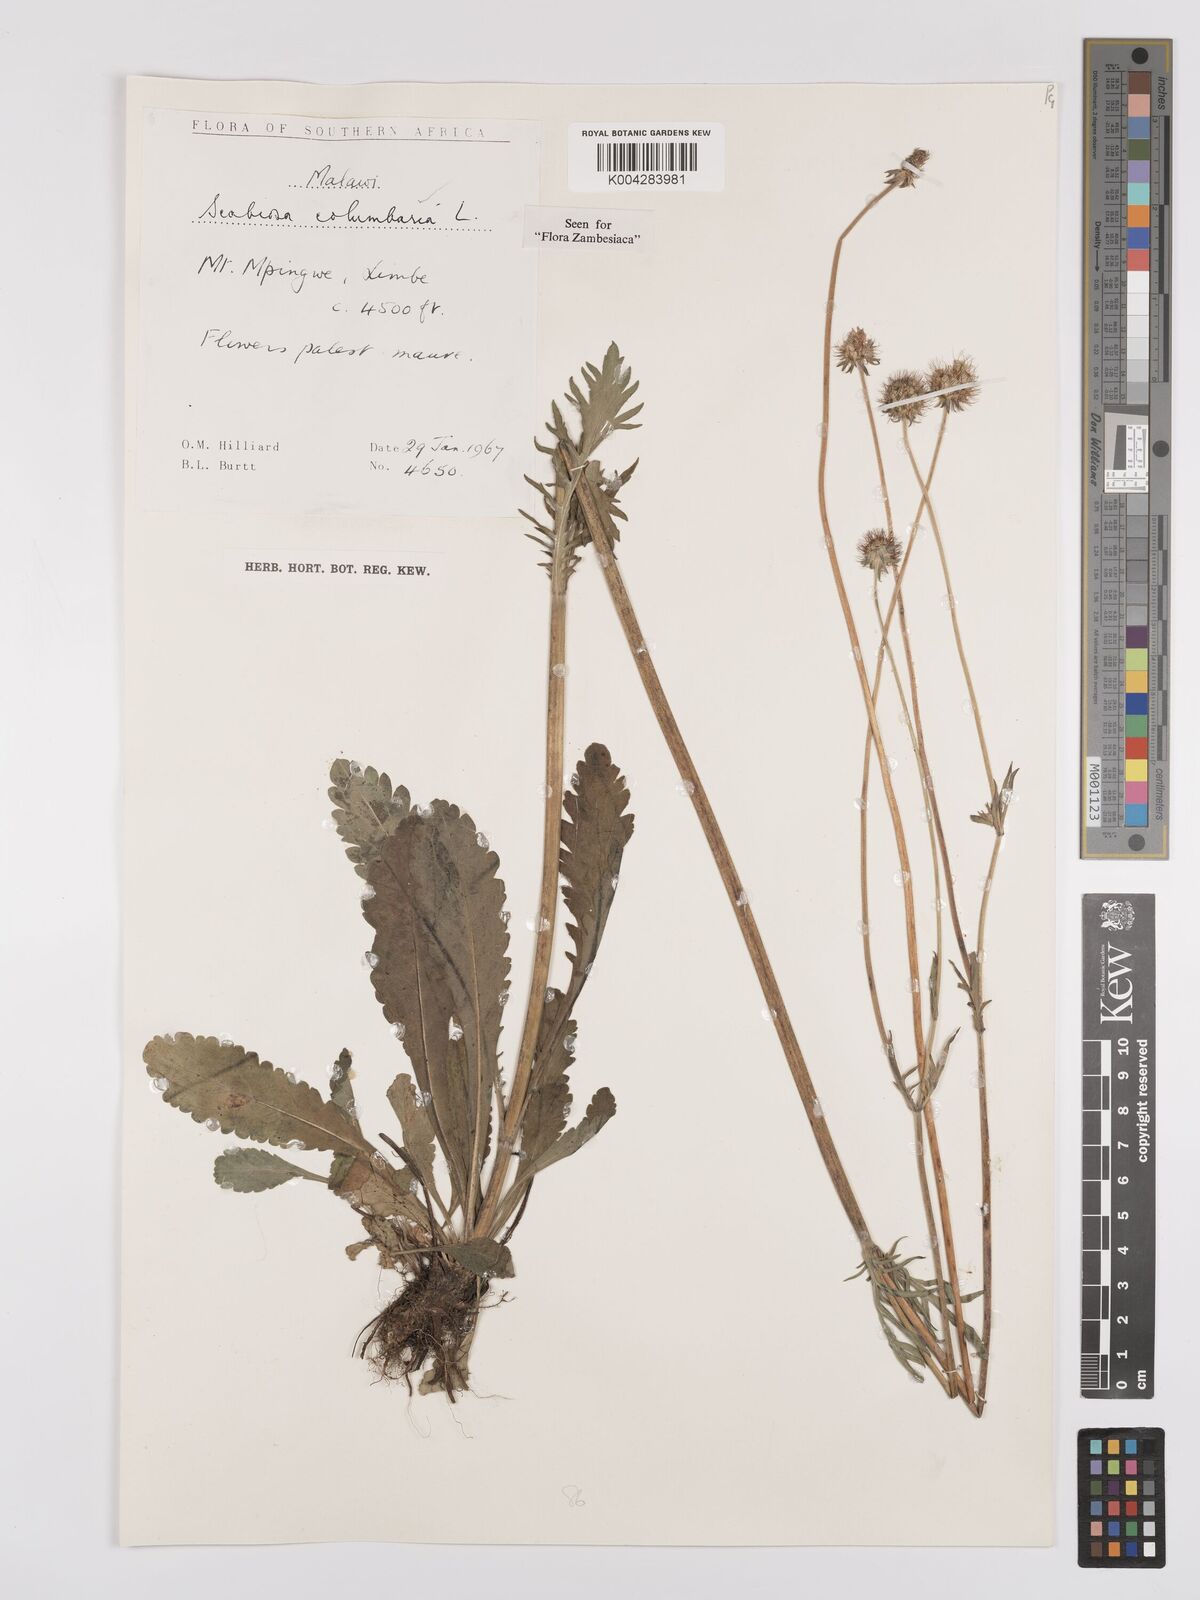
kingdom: Plantae
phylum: Tracheophyta
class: Magnoliopsida
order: Dipsacales
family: Caprifoliaceae
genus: Scabiosa
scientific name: Scabiosa columbaria
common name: Small scabious
